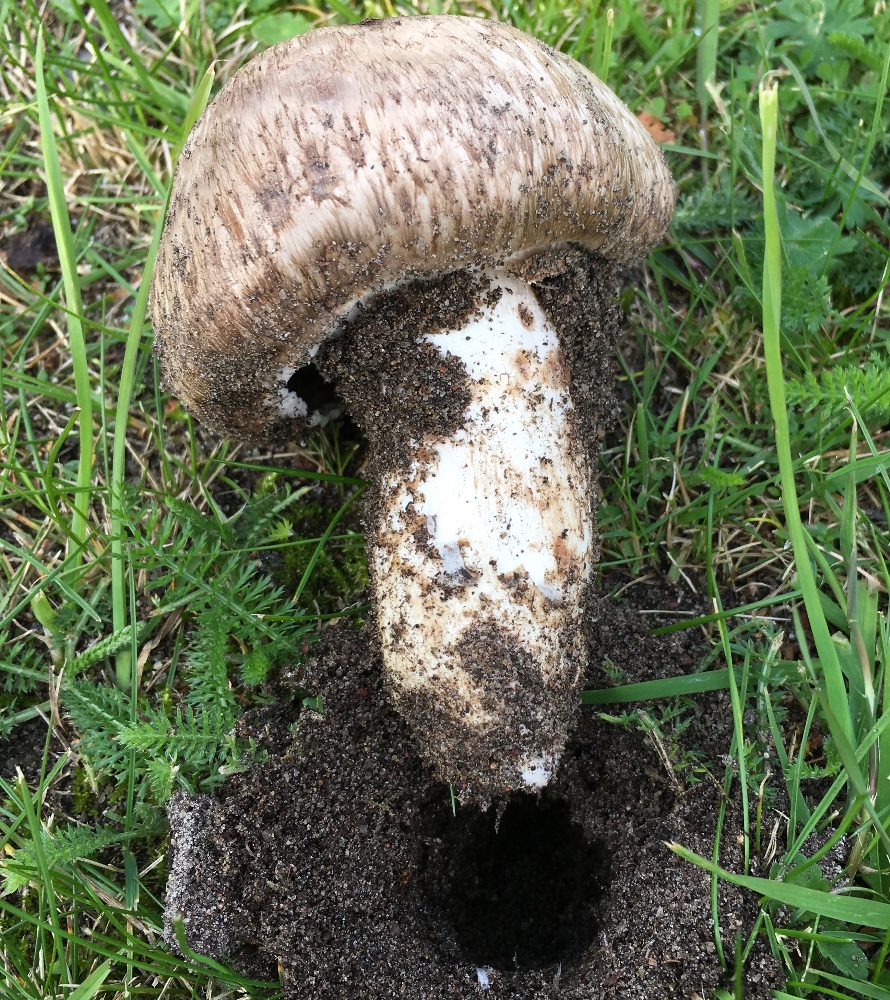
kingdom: Fungi
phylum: Basidiomycota
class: Agaricomycetes
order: Agaricales
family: Agaricaceae
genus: Agaricus
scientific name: Agaricus
